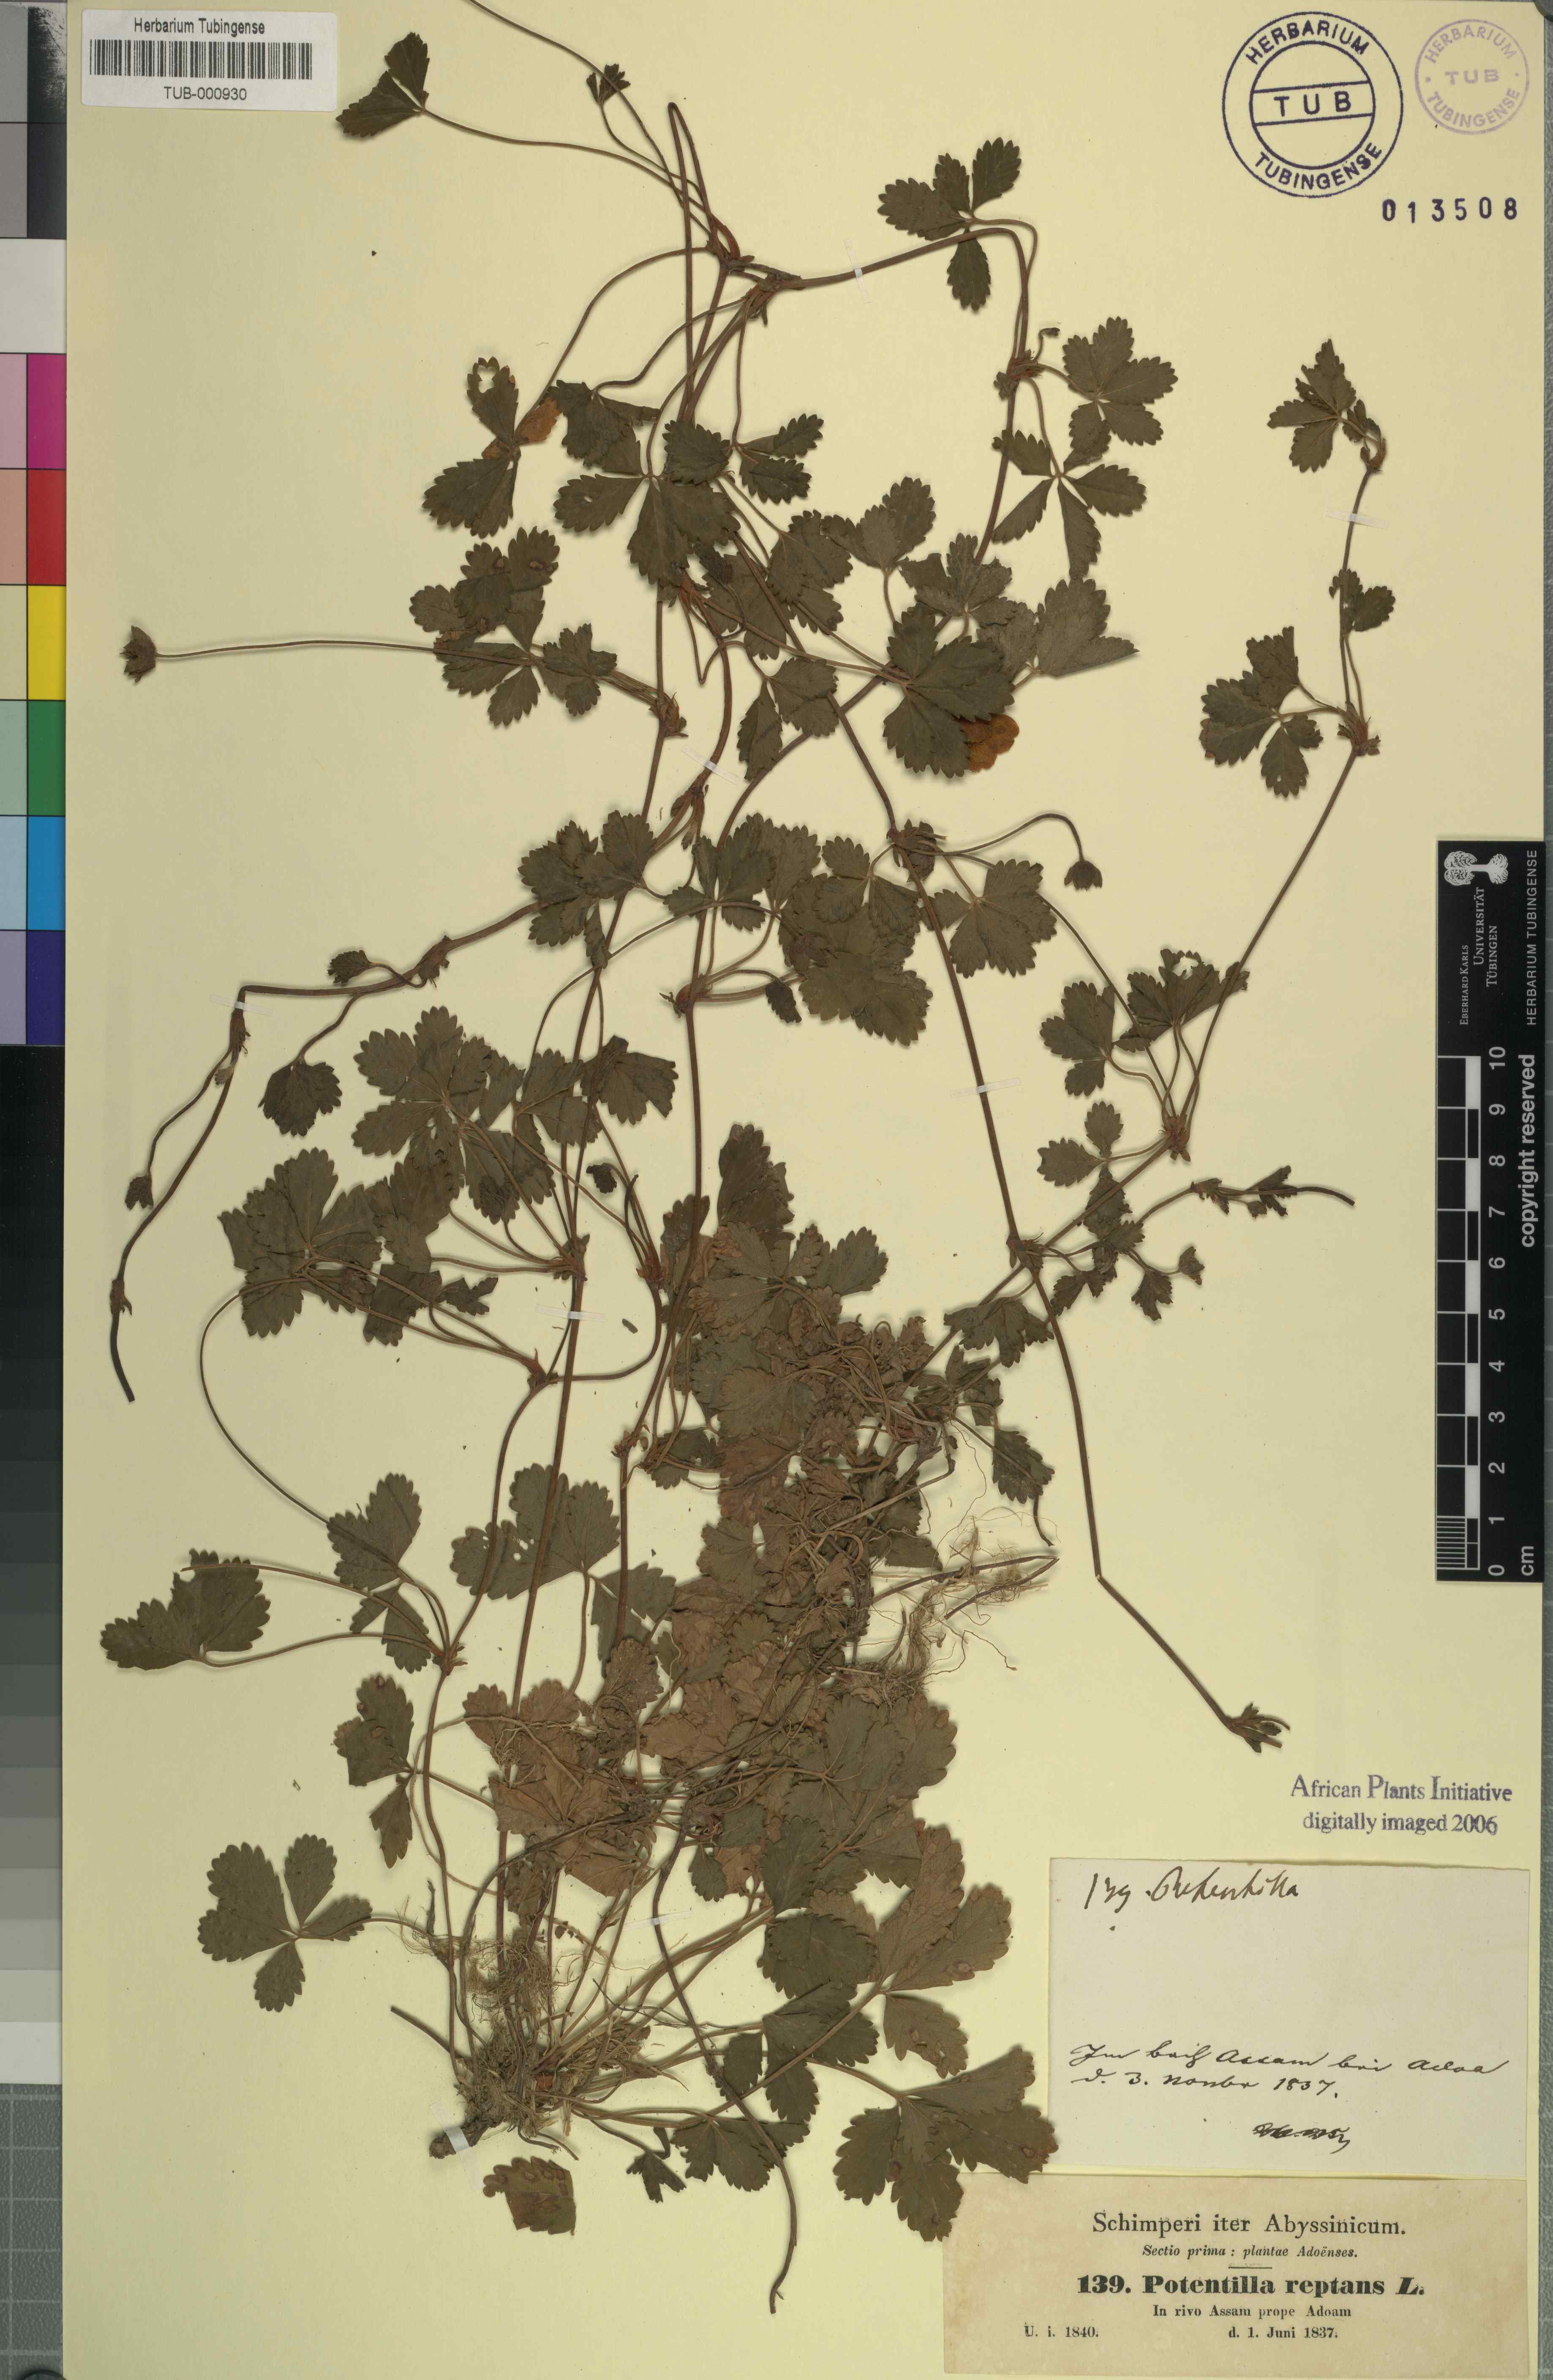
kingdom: Plantae
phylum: Tracheophyta
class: Magnoliopsida
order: Rosales
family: Rosaceae
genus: Potentilla
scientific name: Potentilla reptans
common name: Creeping cinquefoil
